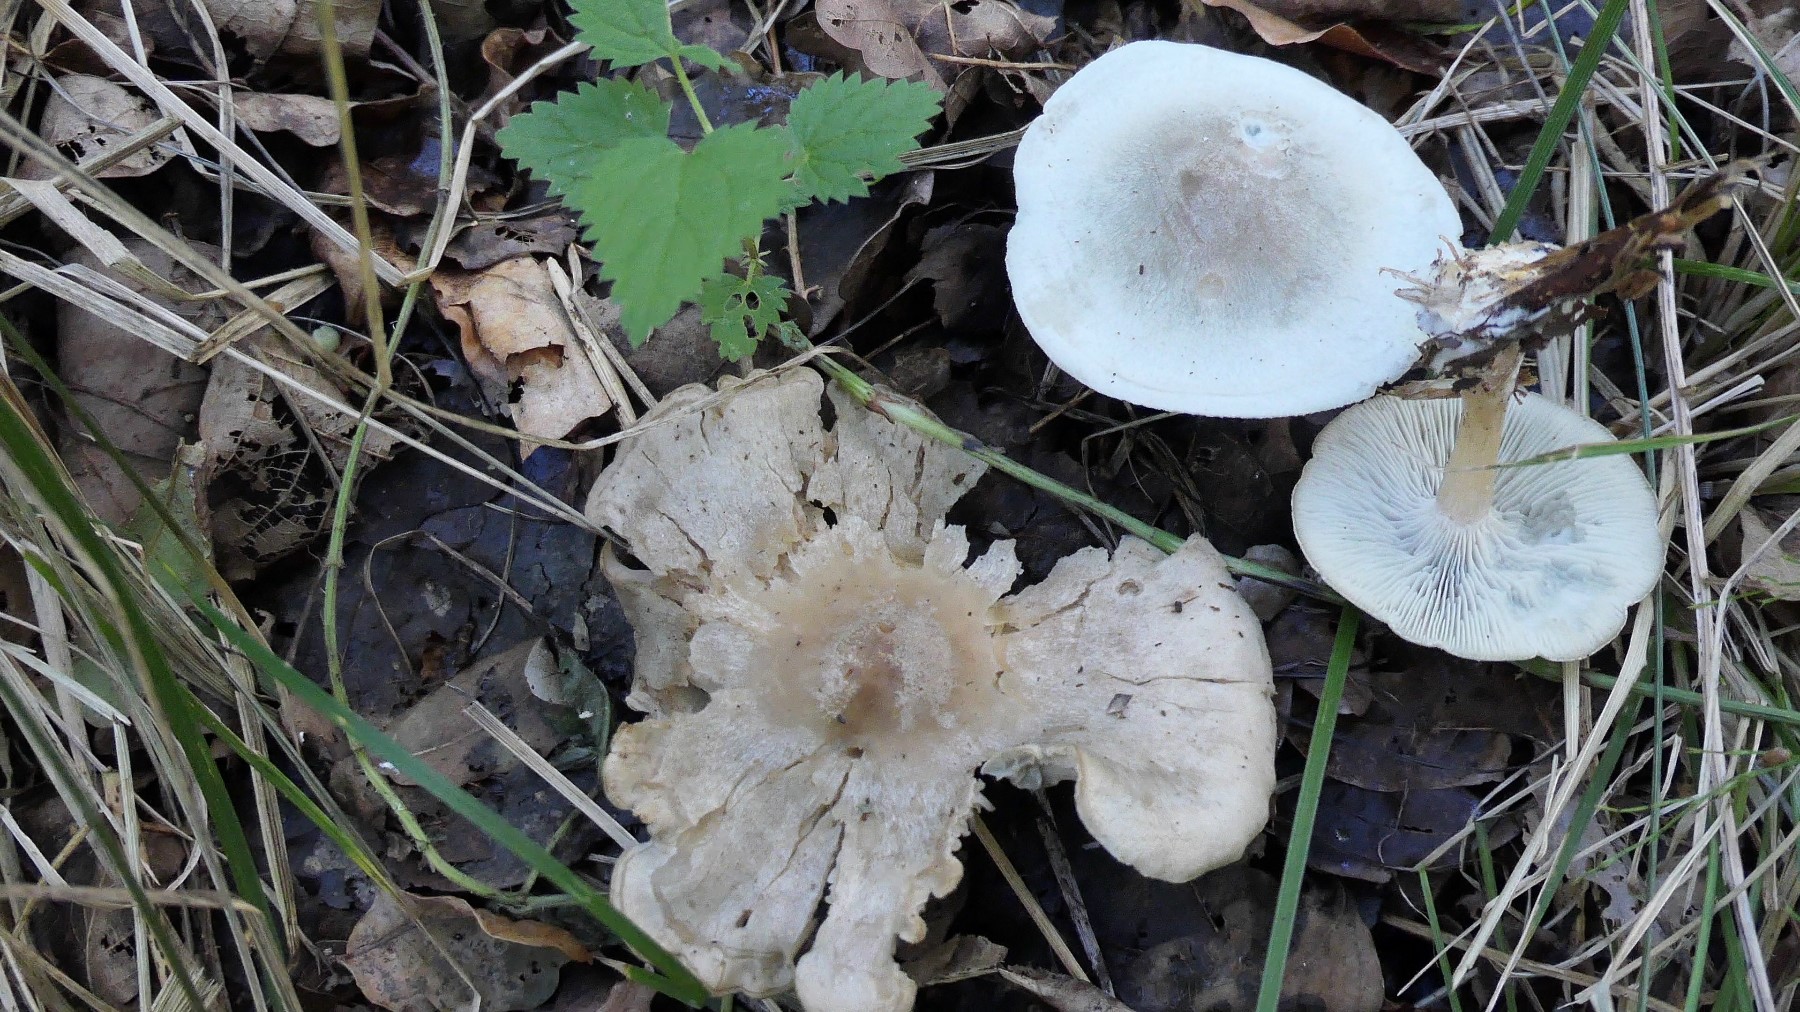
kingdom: Fungi
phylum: Basidiomycota
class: Agaricomycetes
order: Agaricales
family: Tricholomataceae
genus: Clitocybe
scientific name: Clitocybe odora
